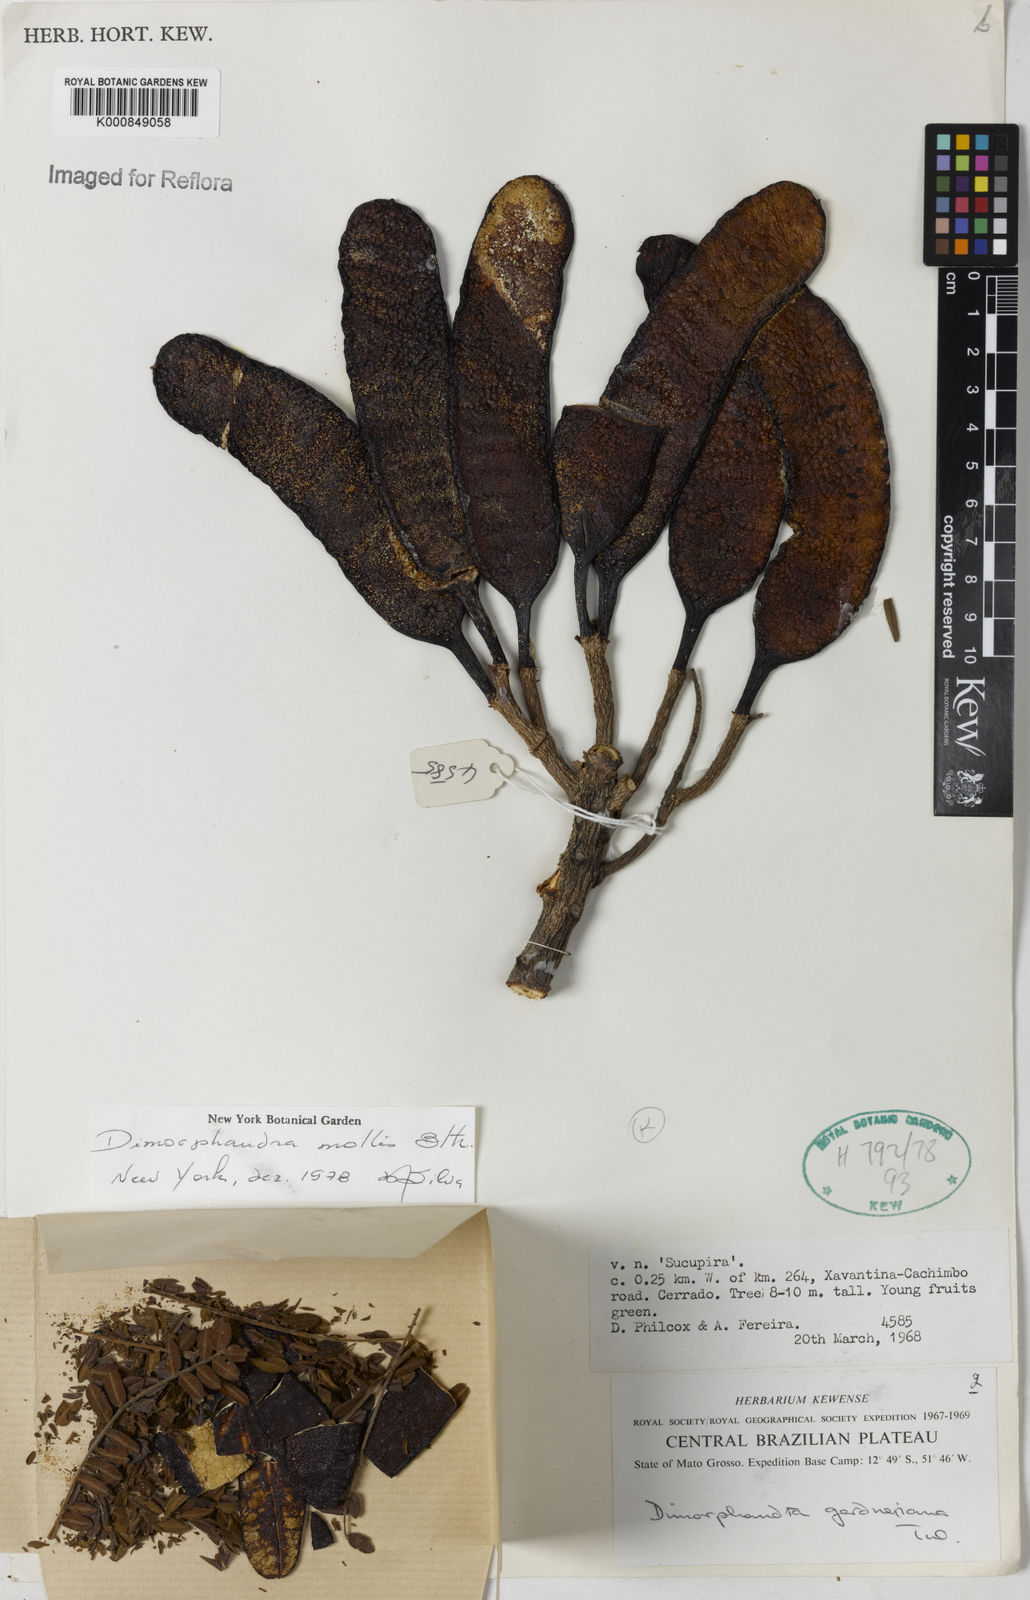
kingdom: Plantae
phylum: Tracheophyta
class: Magnoliopsida
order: Fabales
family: Fabaceae
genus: Dimorphandra
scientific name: Dimorphandra mollis
